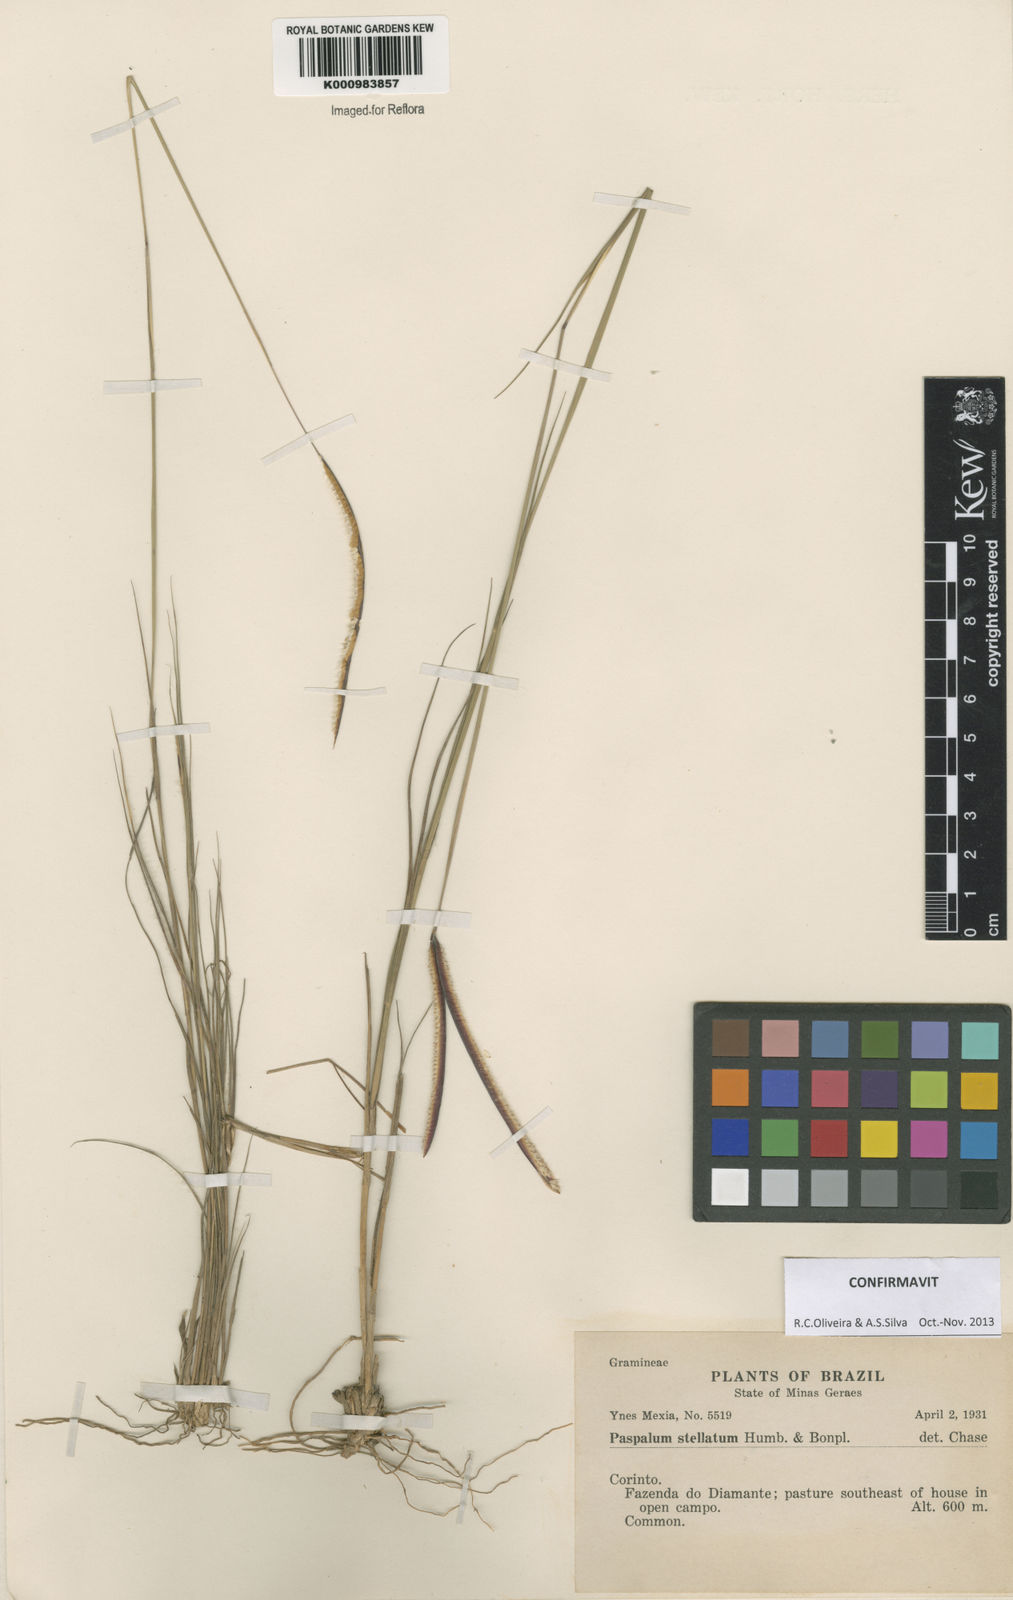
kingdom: Plantae
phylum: Tracheophyta
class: Liliopsida
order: Poales
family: Poaceae
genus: Paspalum
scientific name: Paspalum
